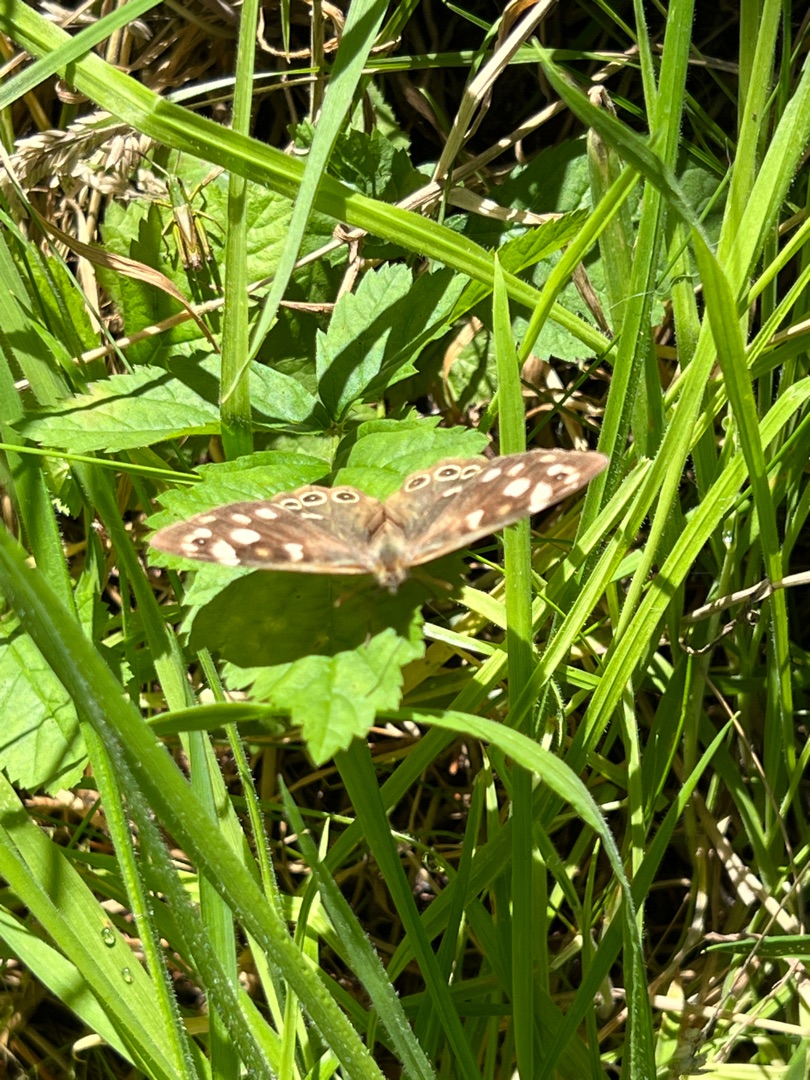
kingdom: Animalia
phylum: Arthropoda
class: Insecta
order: Lepidoptera
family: Nymphalidae
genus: Pararge
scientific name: Pararge aegeria
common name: Skovrandøje
